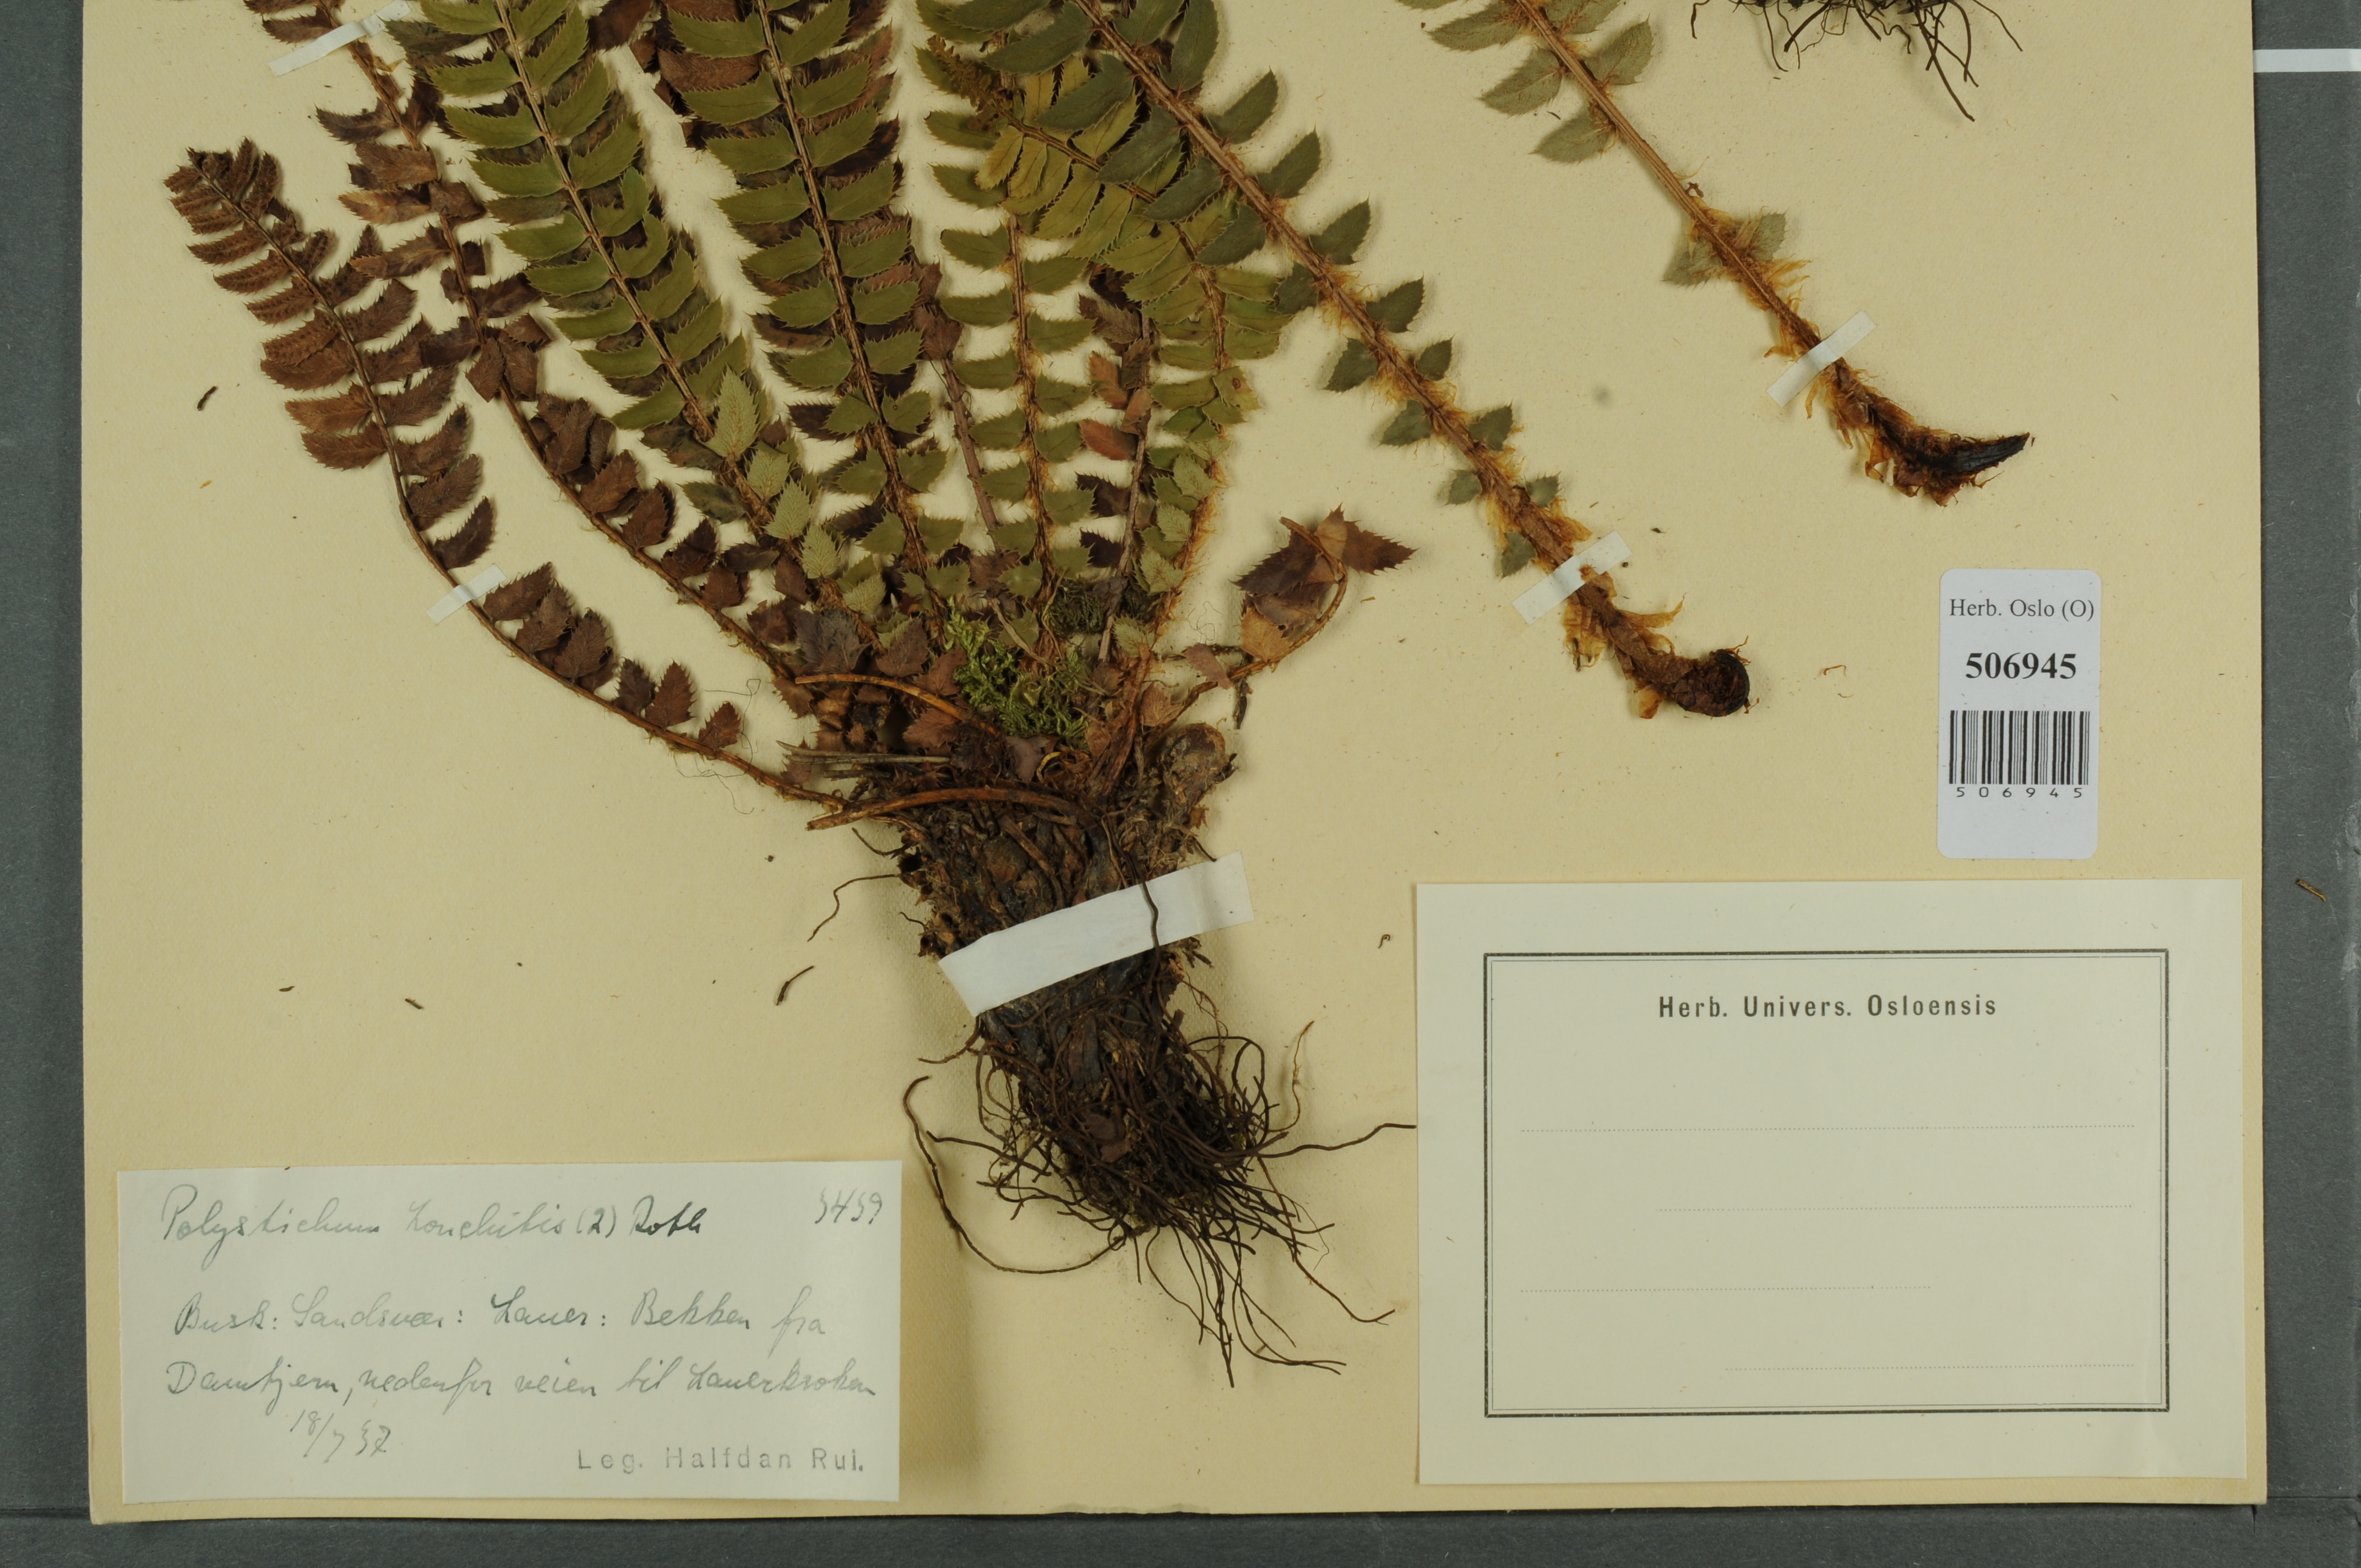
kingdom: Plantae
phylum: Tracheophyta
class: Polypodiopsida
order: Polypodiales
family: Dryopteridaceae
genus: Polystichum
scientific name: Polystichum lonchitis
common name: Holly fern
